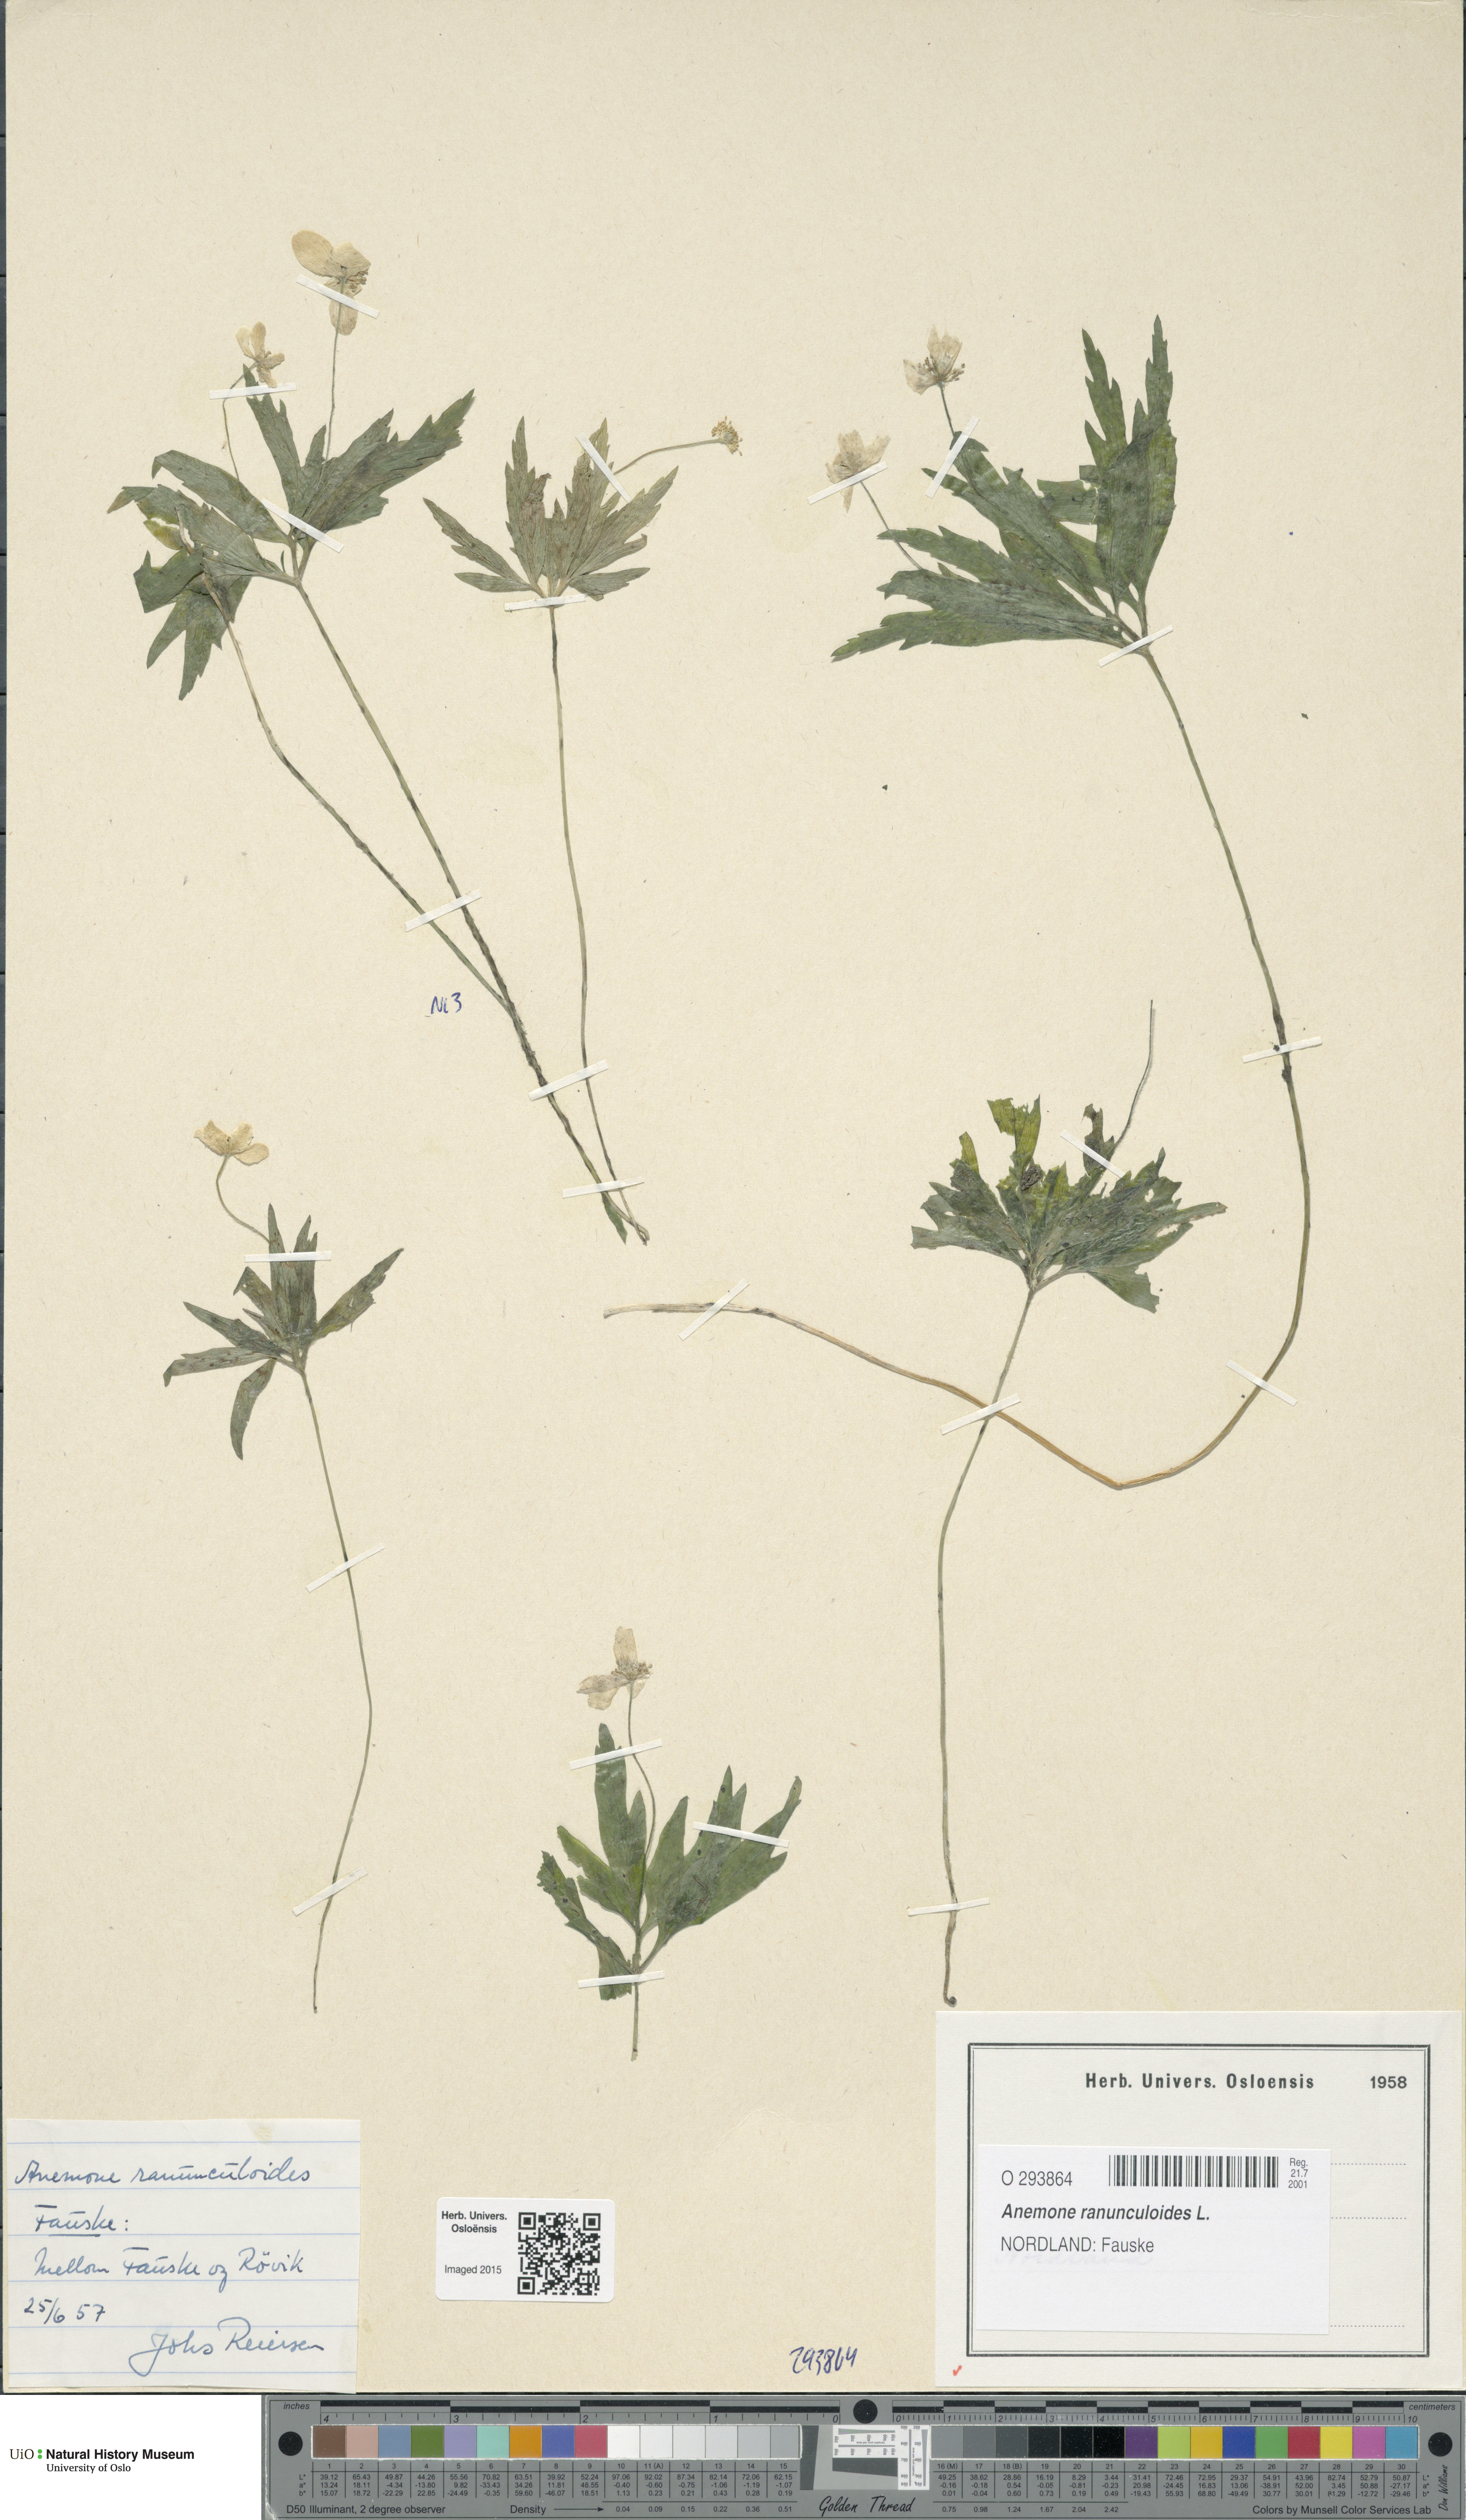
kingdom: Plantae
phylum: Tracheophyta
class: Magnoliopsida
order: Ranunculales
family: Ranunculaceae
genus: Anemone
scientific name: Anemone ranunculoides
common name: Yellow anemone
